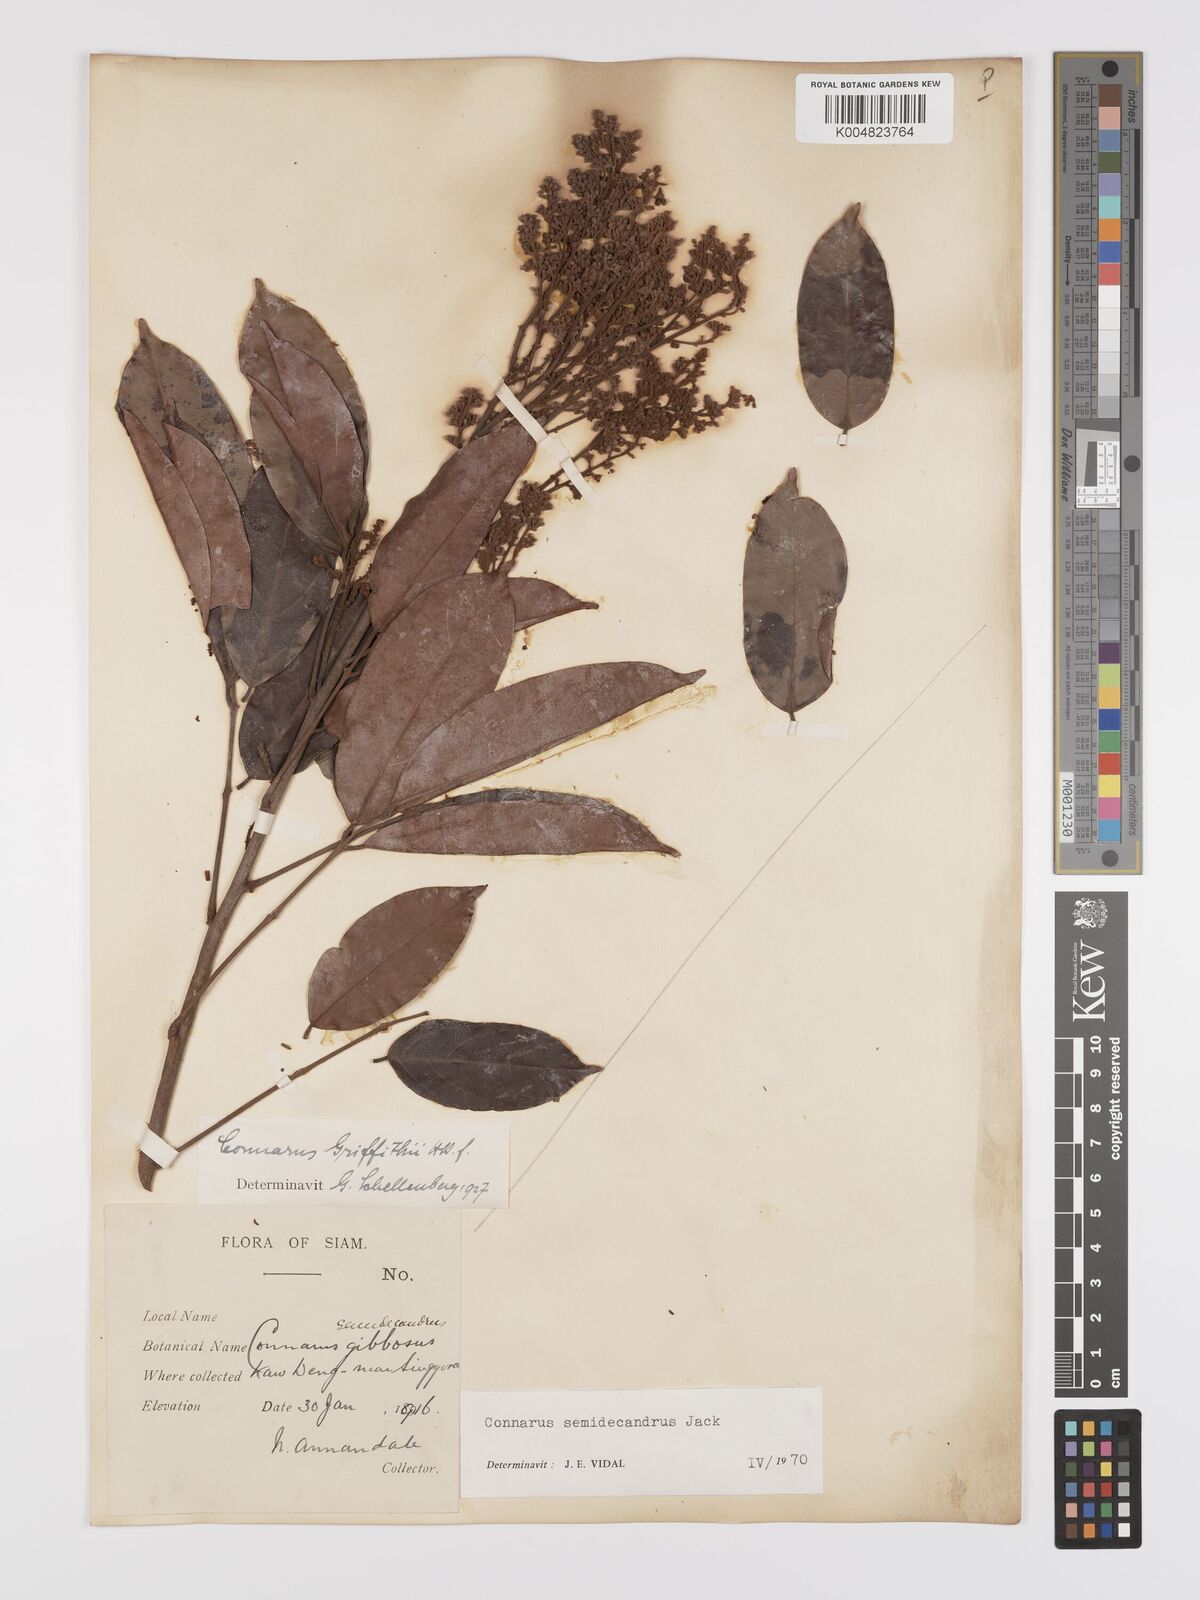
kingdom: Plantae
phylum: Tracheophyta
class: Magnoliopsida
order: Oxalidales
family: Connaraceae
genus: Connarus
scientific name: Connarus semidecandrus
